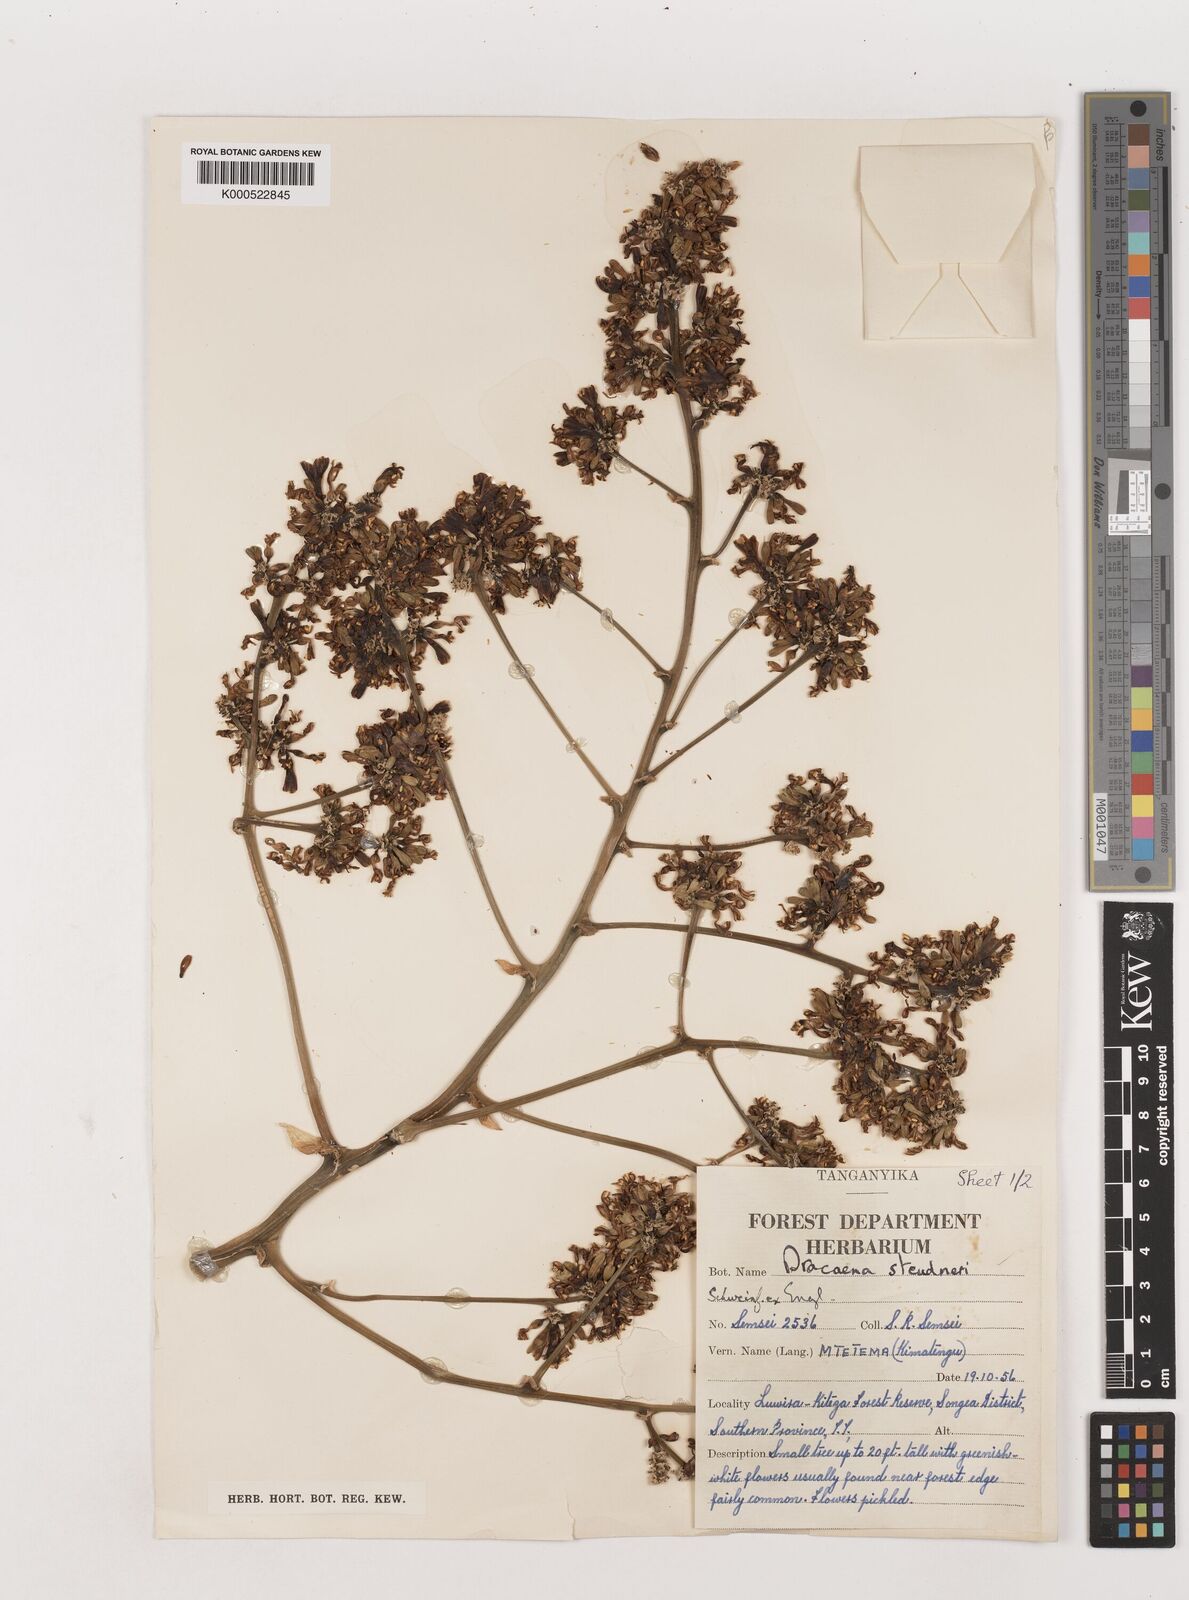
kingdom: Plantae
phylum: Tracheophyta
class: Liliopsida
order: Asparagales
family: Asparagaceae
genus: Dracaena
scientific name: Dracaena steudneri
